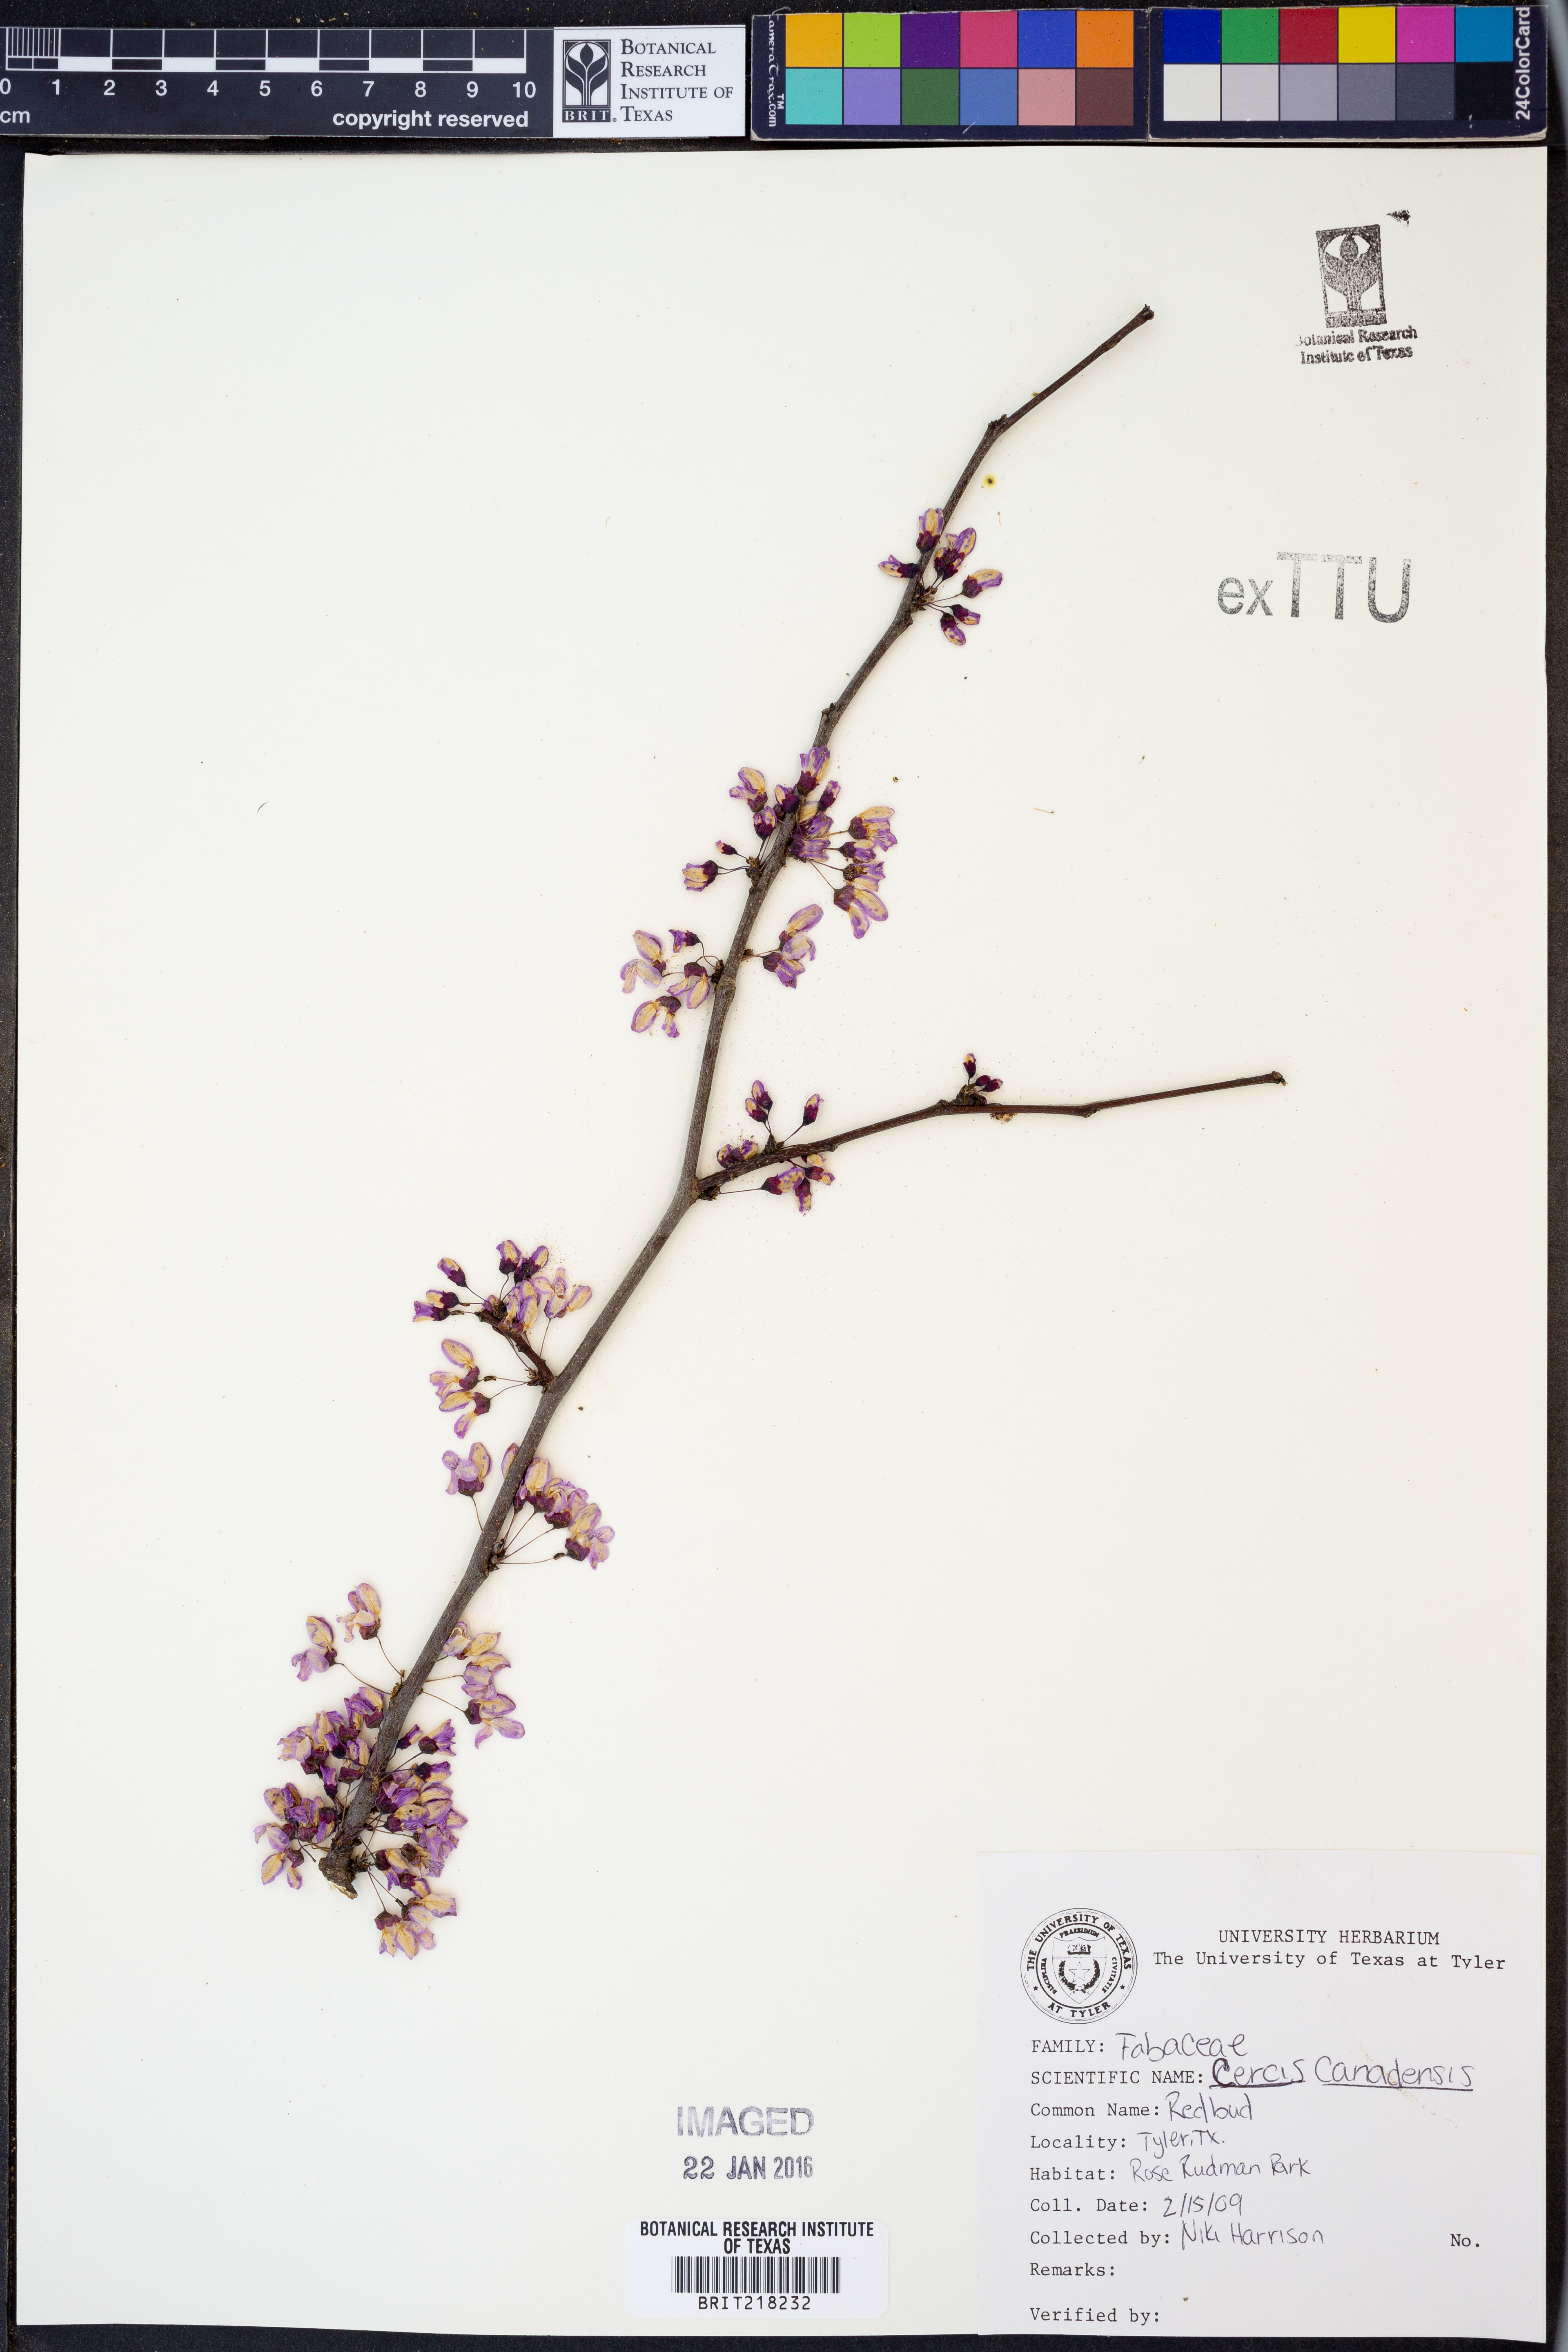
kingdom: Plantae
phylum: Tracheophyta
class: Magnoliopsida
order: Fabales
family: Fabaceae
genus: Cercis
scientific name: Cercis canadensis
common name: Eastern redbud
